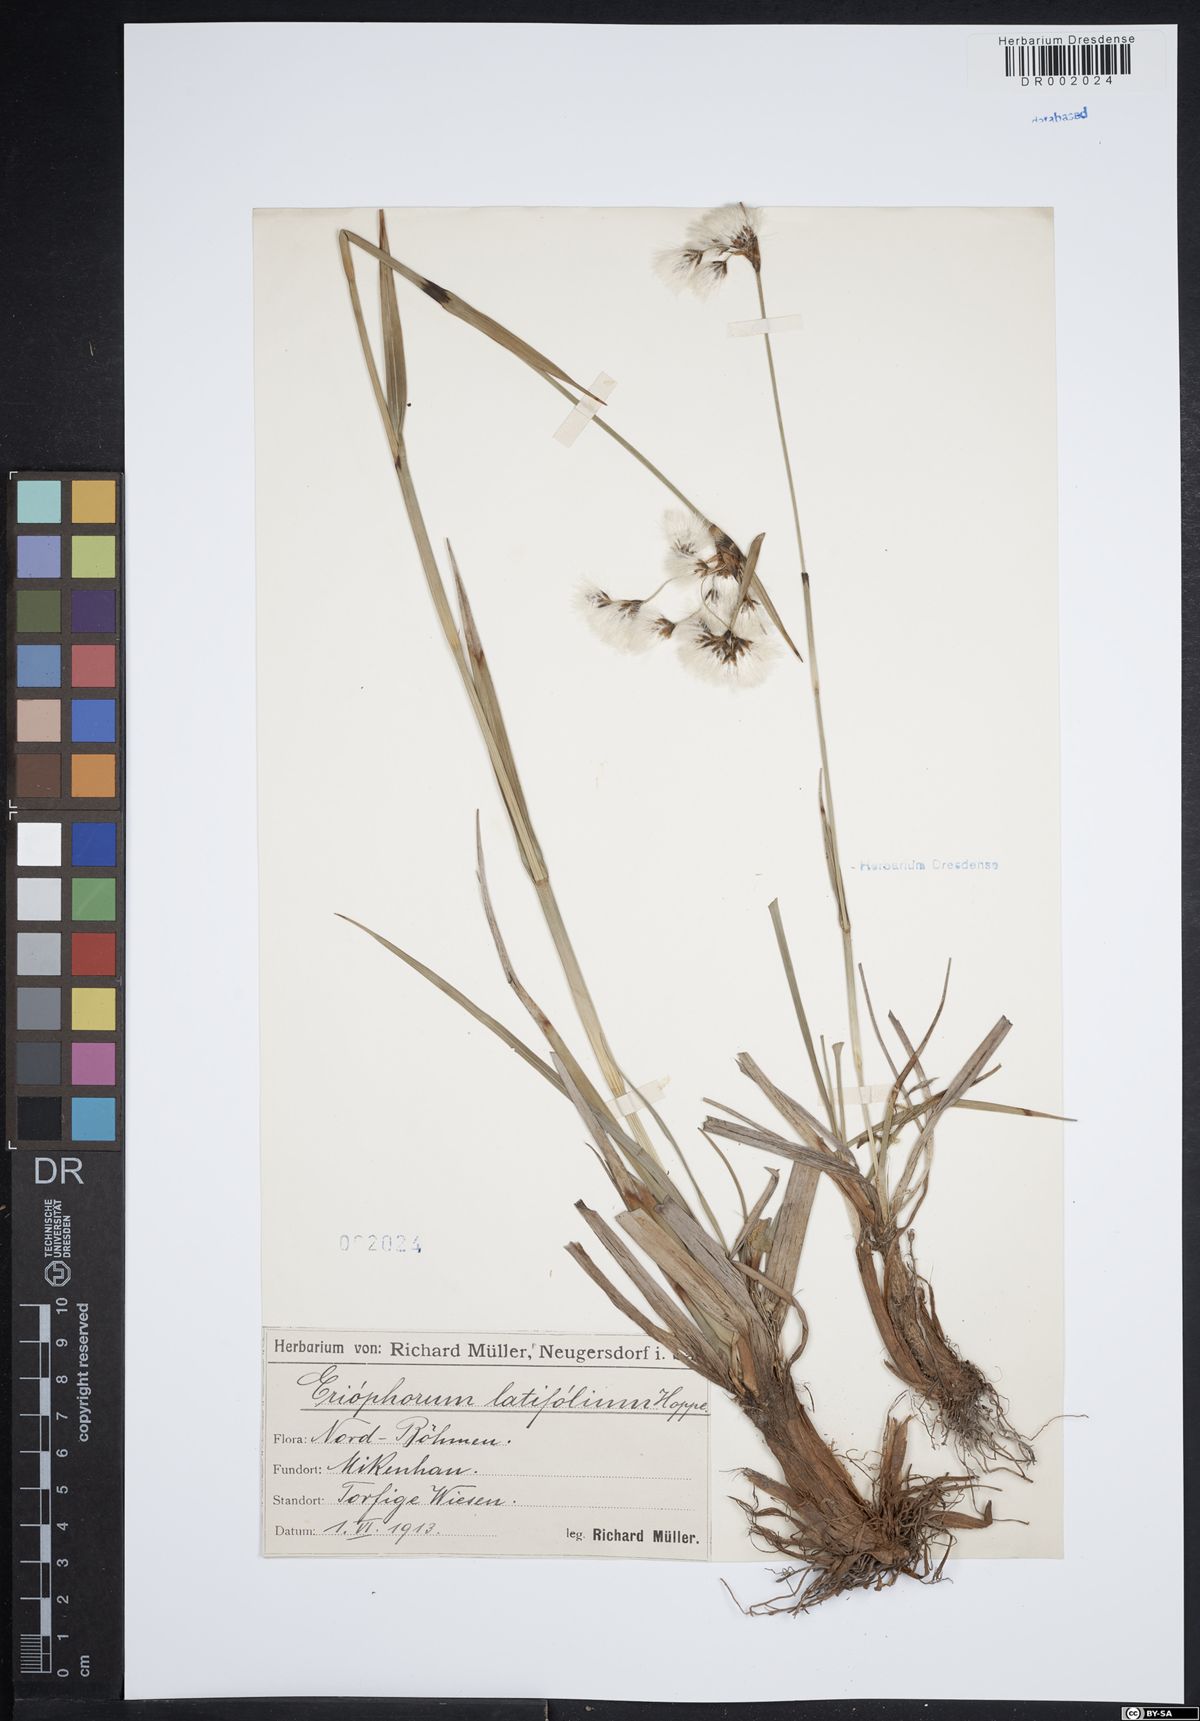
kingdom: Plantae
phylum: Tracheophyta
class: Liliopsida
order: Poales
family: Cyperaceae
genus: Eriophorum
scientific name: Eriophorum latifolium
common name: Broad-leaved cottongrass
